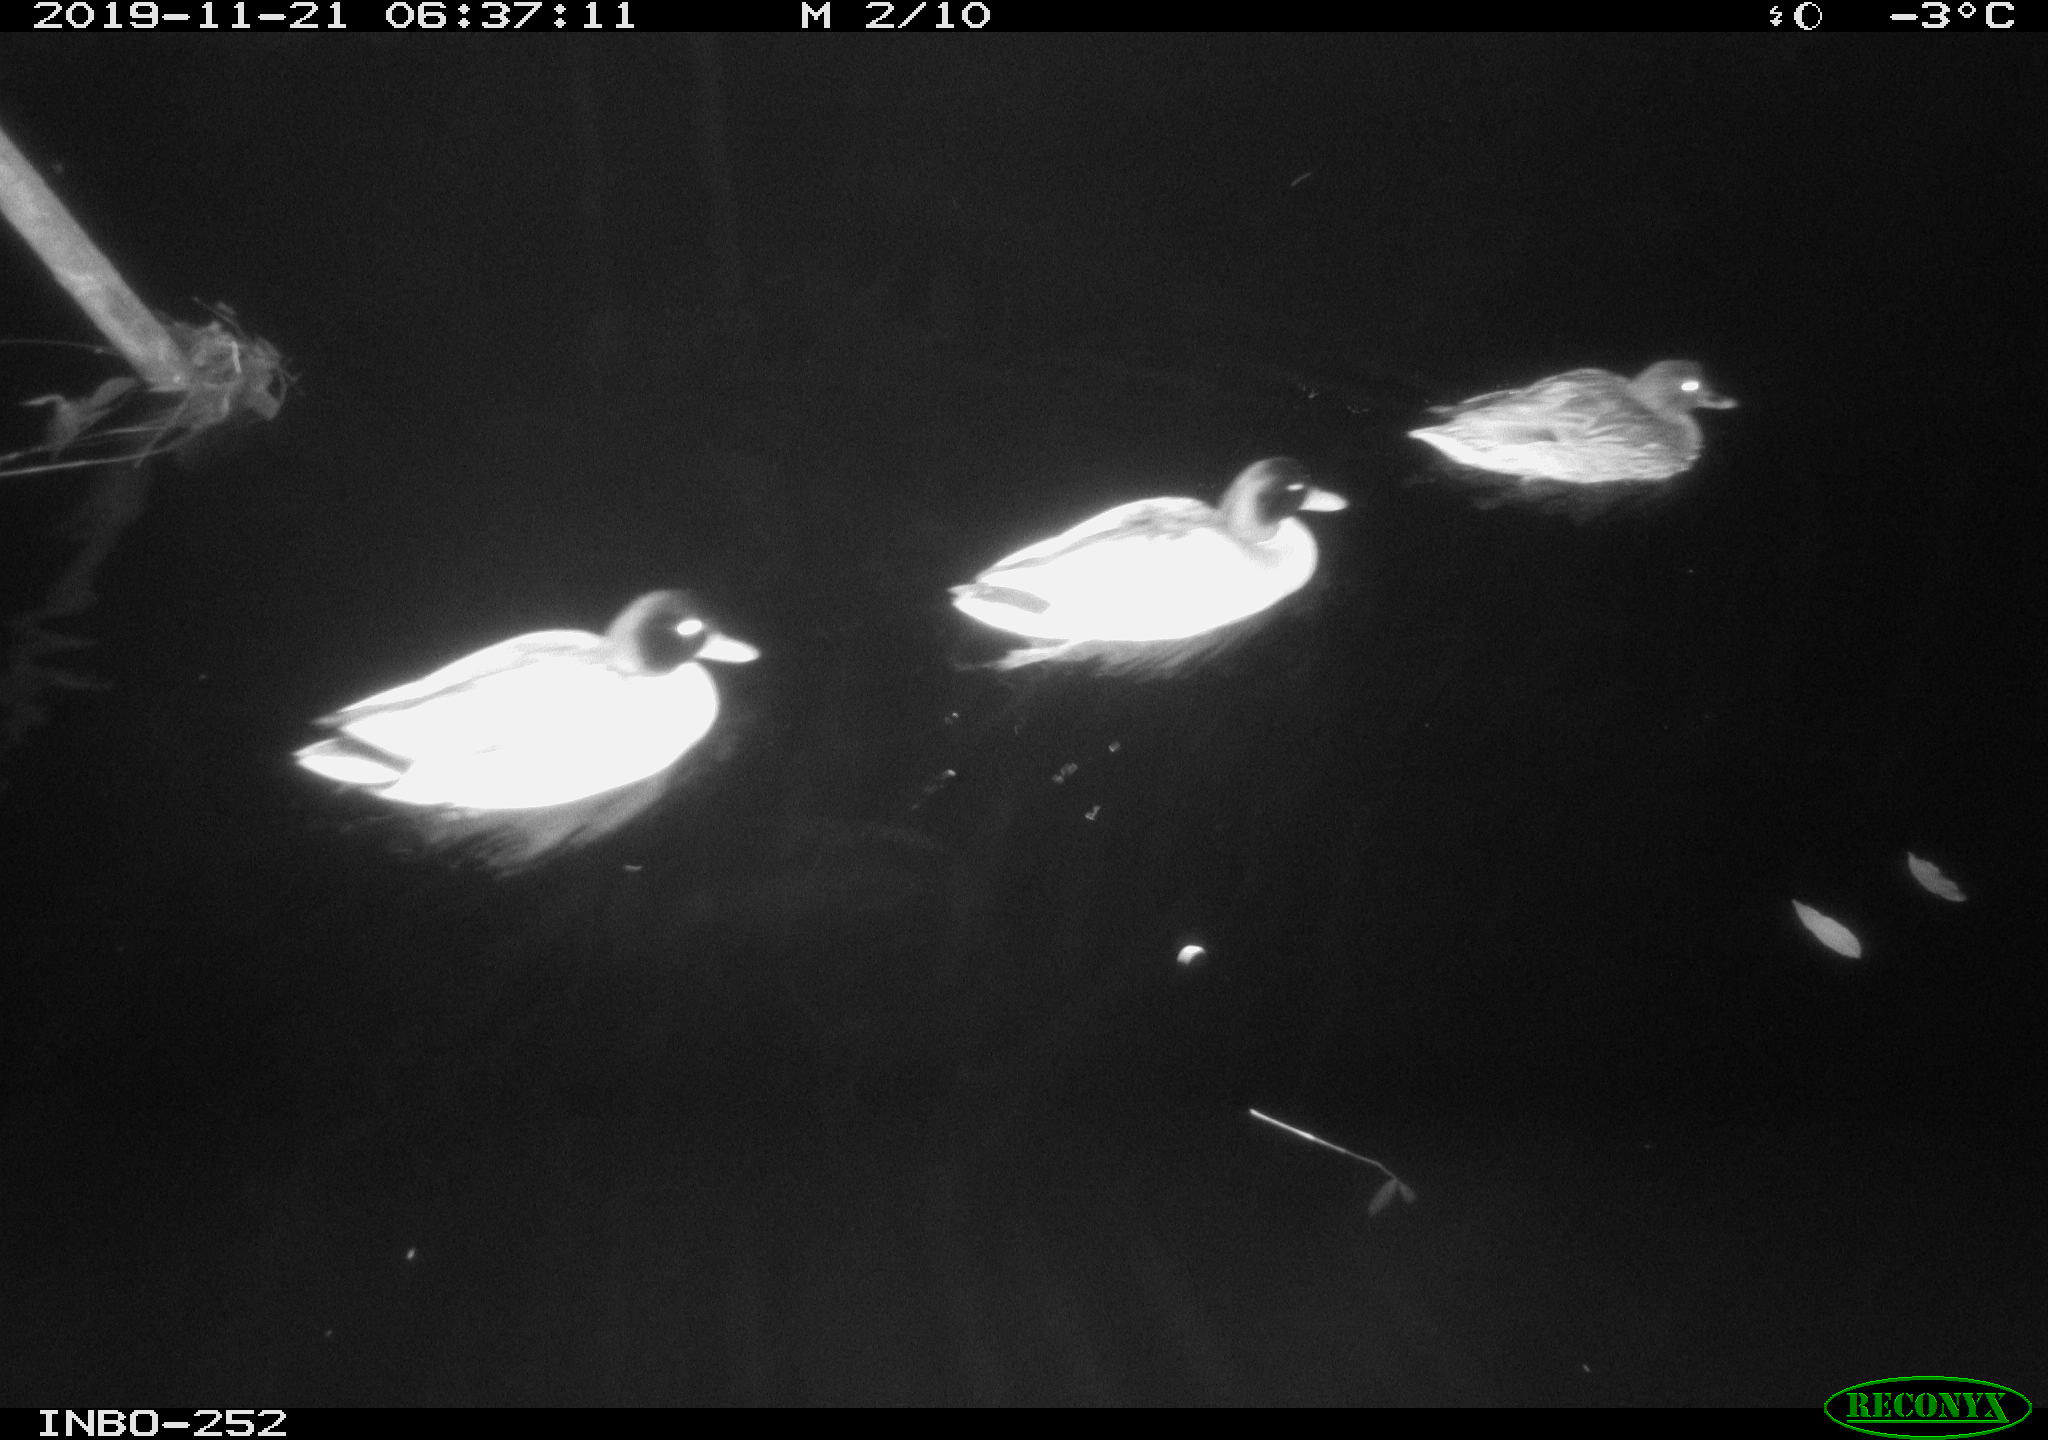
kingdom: Animalia
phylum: Chordata
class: Aves
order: Anseriformes
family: Anatidae
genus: Anas
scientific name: Anas platyrhynchos
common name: Mallard
